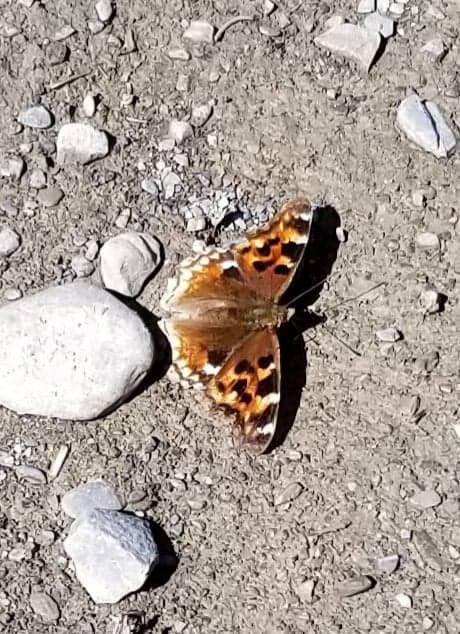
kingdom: Animalia
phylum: Arthropoda
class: Insecta
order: Lepidoptera
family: Nymphalidae
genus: Polygonia
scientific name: Polygonia vaualbum
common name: Compton Tortoiseshell
